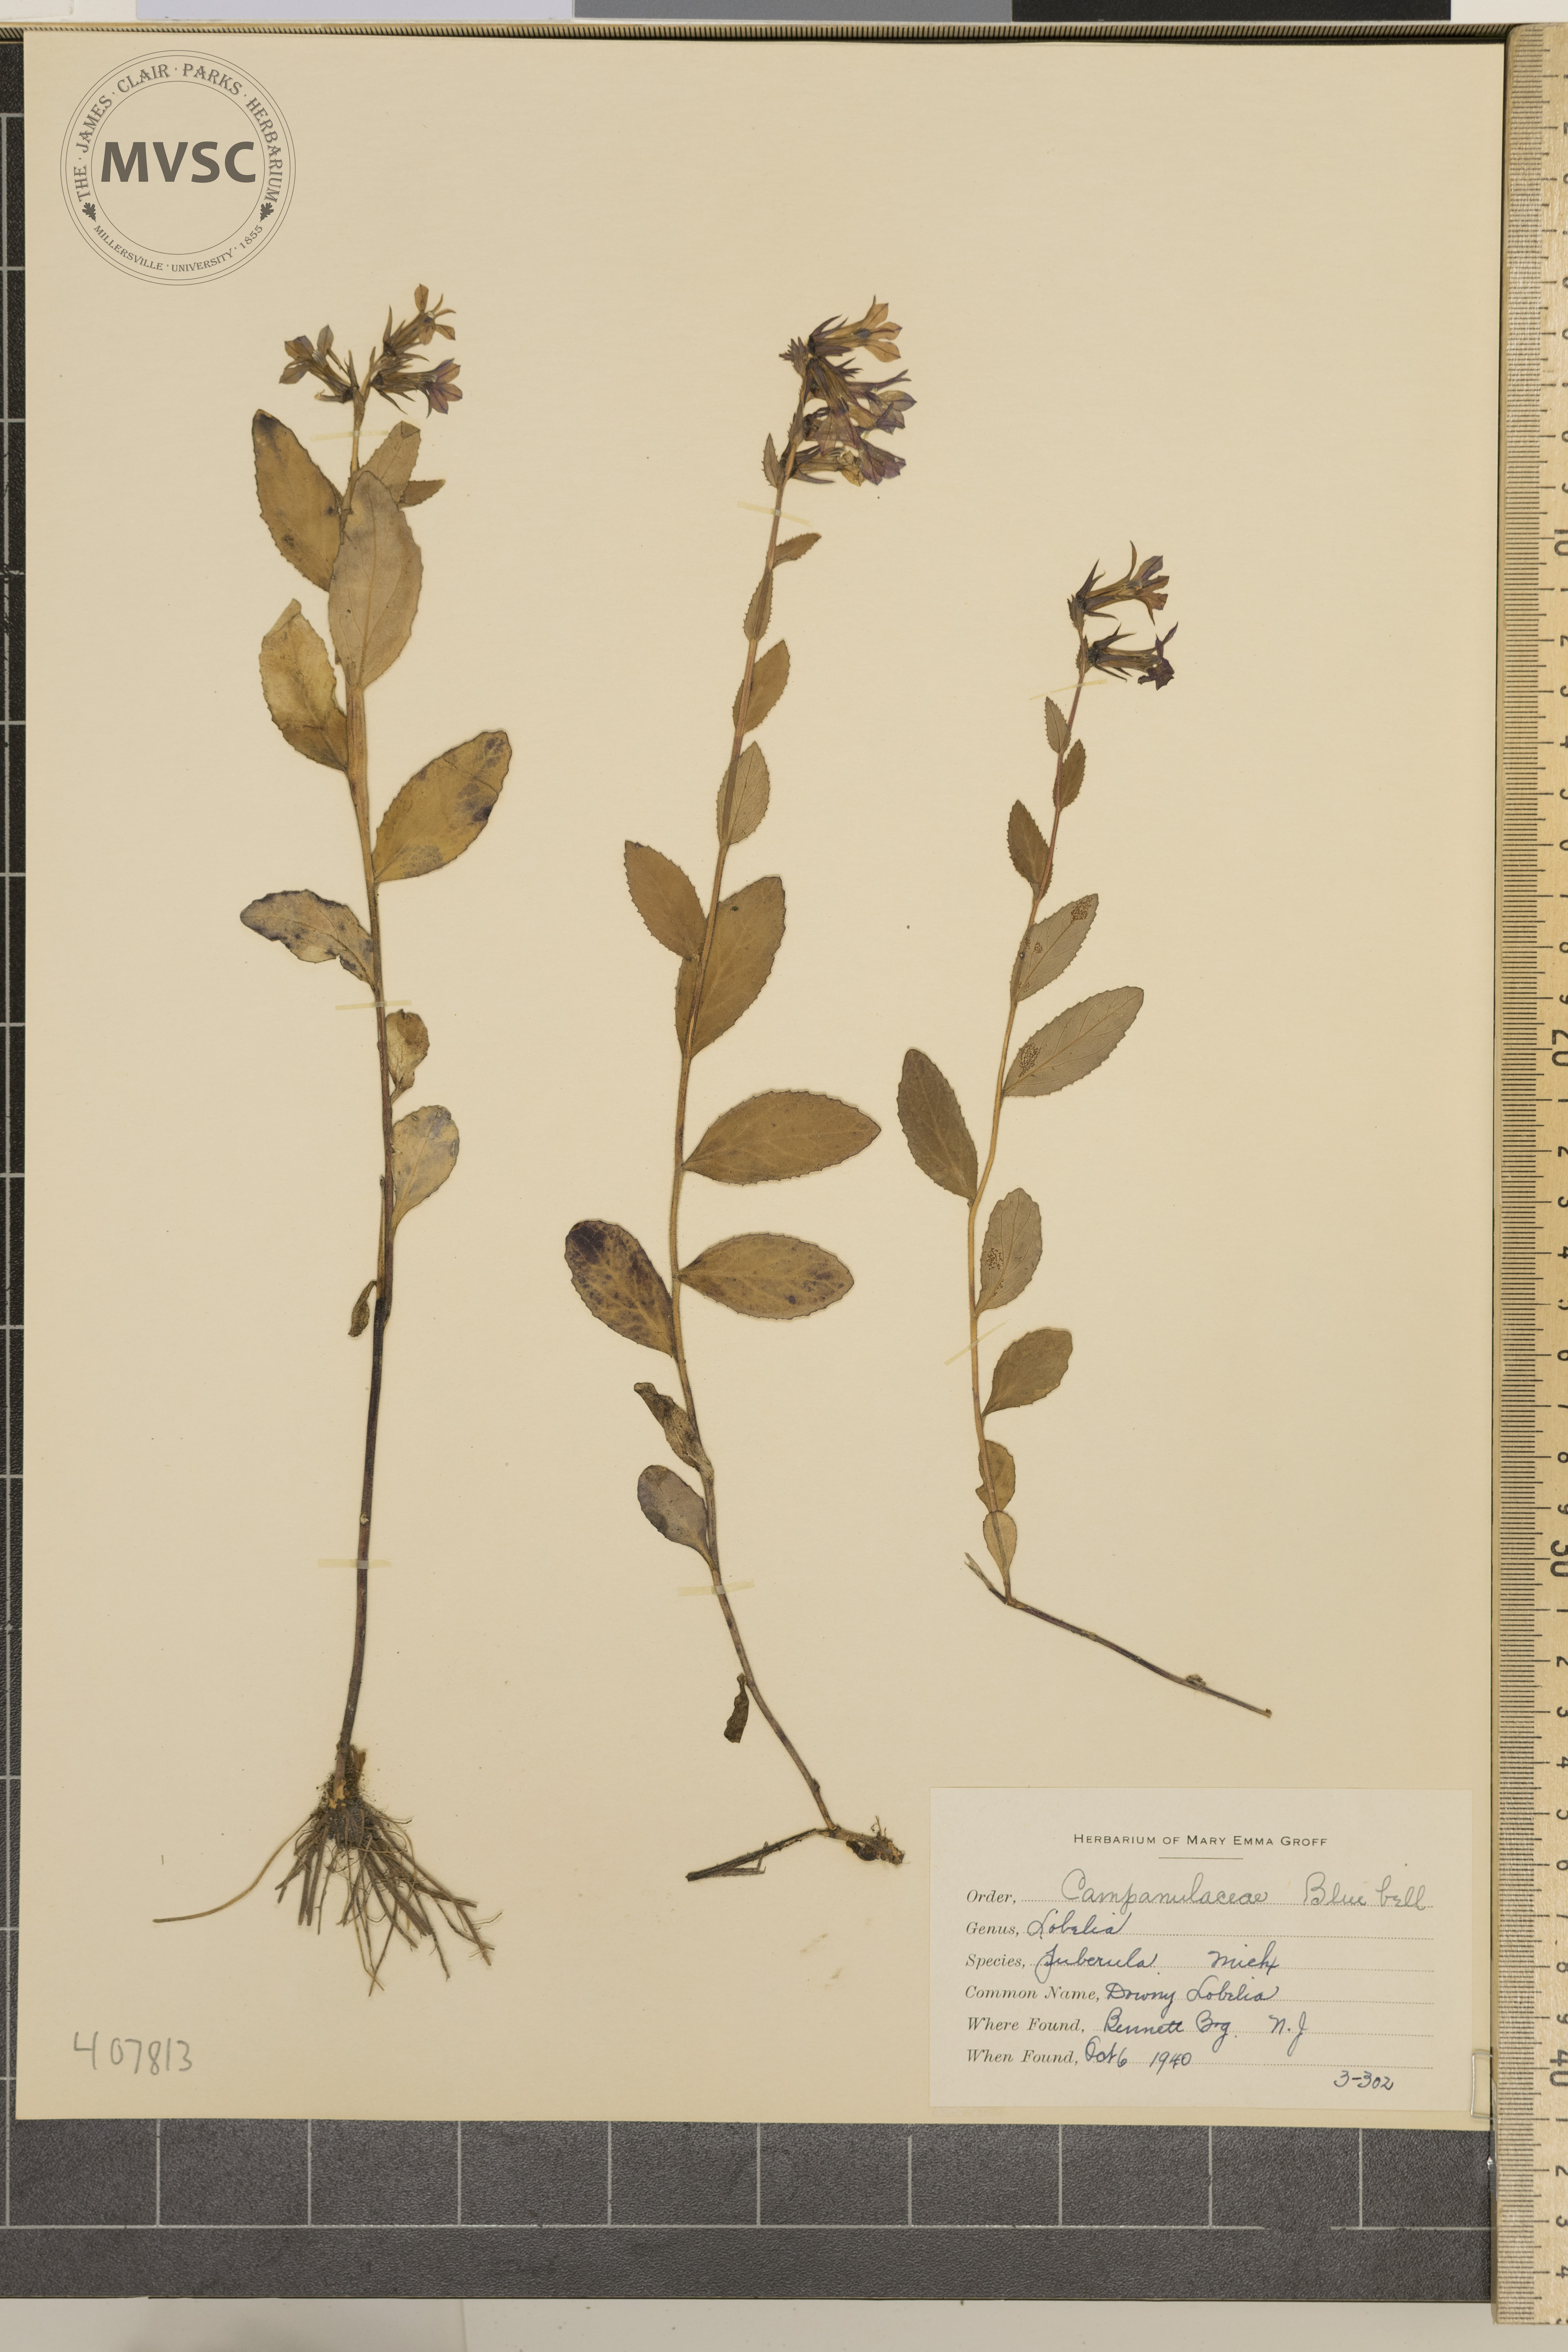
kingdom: Plantae
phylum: Tracheophyta
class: Magnoliopsida
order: Asterales
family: Campanulaceae
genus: Lobelia
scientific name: Lobelia puberula
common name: Downy Lobelia
